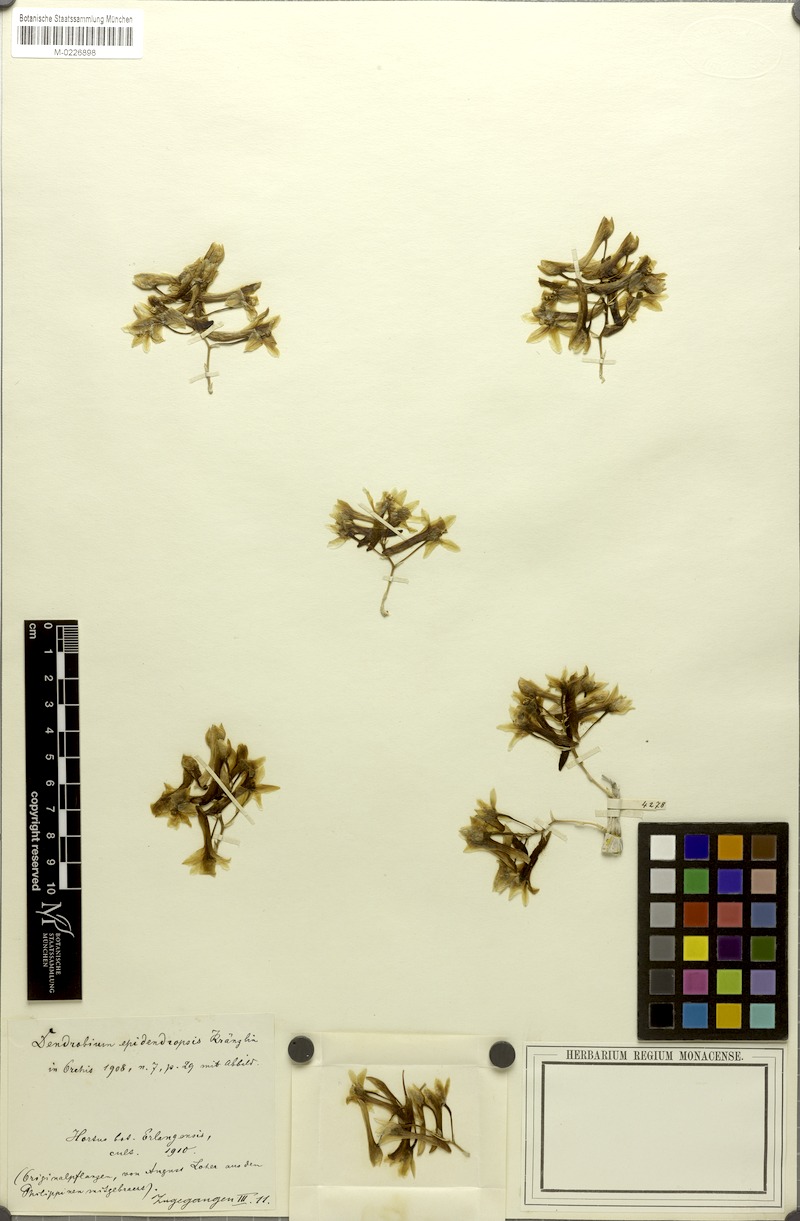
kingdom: Plantae
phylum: Tracheophyta
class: Liliopsida
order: Asparagales
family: Orchidaceae
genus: Dendrobium
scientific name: Dendrobium ionopus
